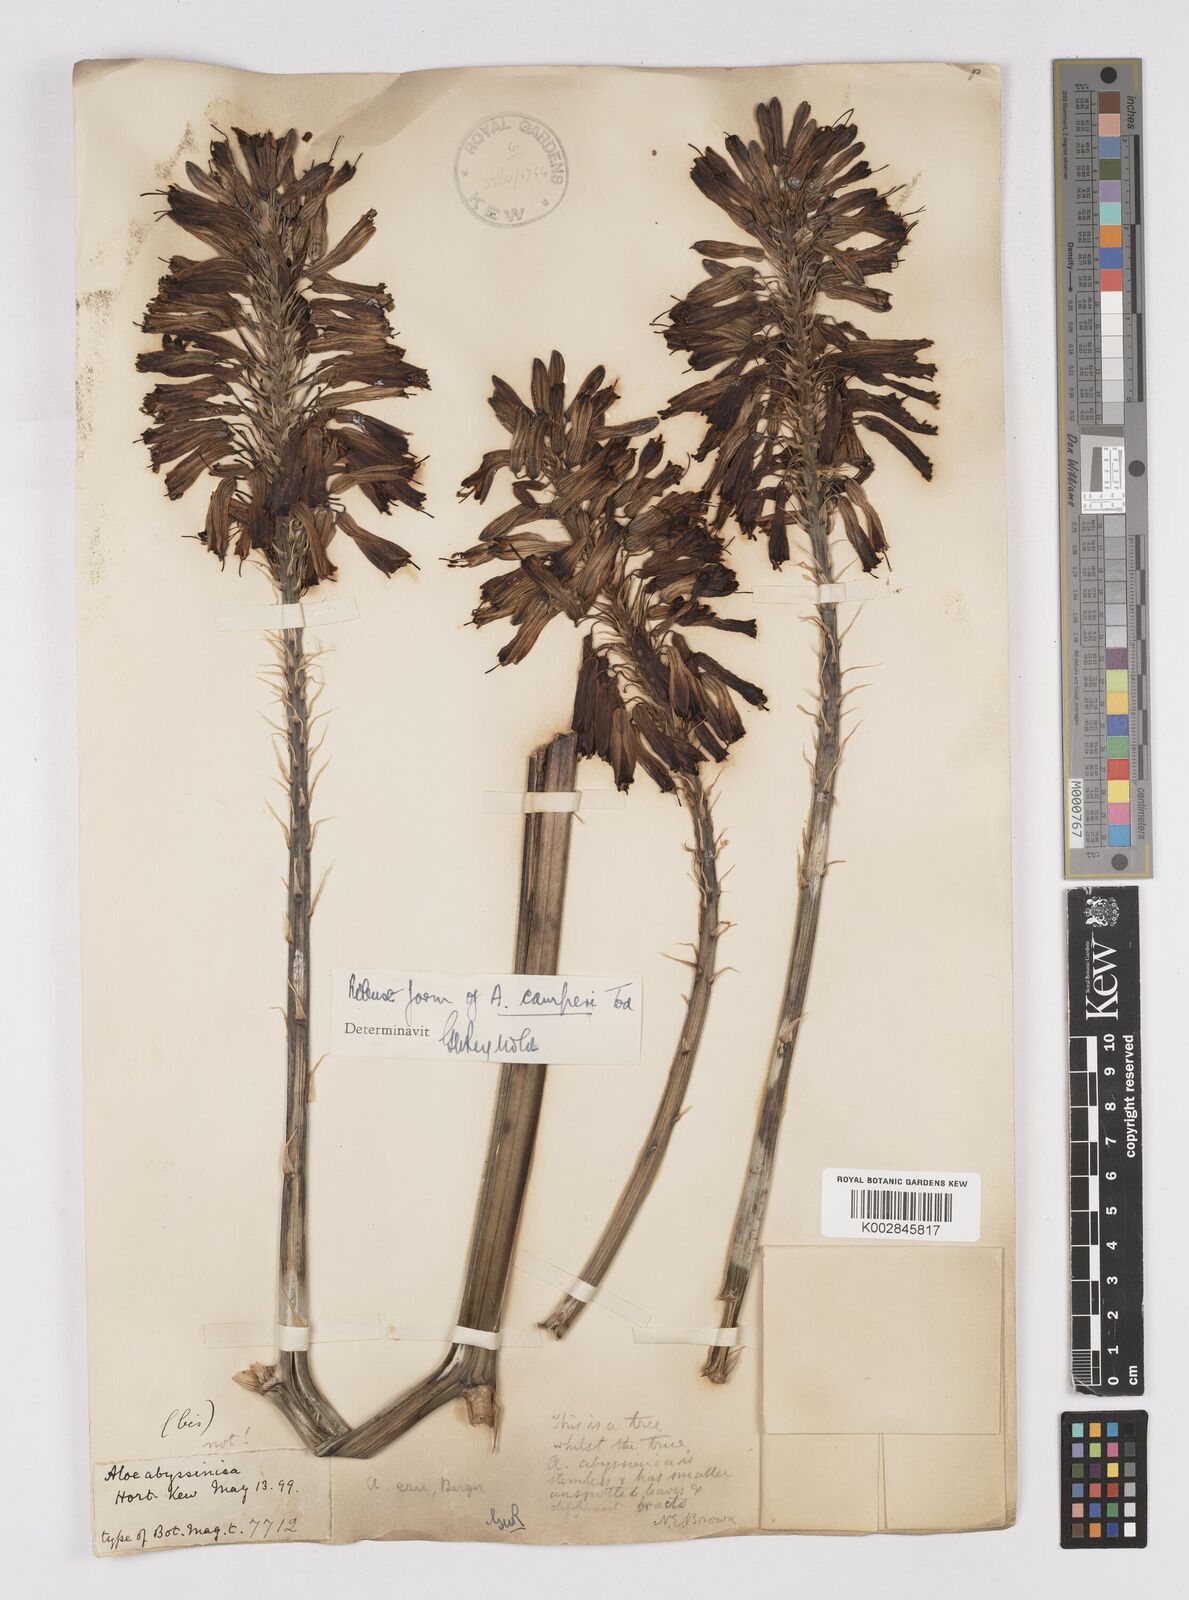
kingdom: Plantae
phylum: Tracheophyta
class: Liliopsida
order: Asparagales
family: Asphodelaceae
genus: Aloe
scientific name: Aloe camperi
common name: Camper's aloe
